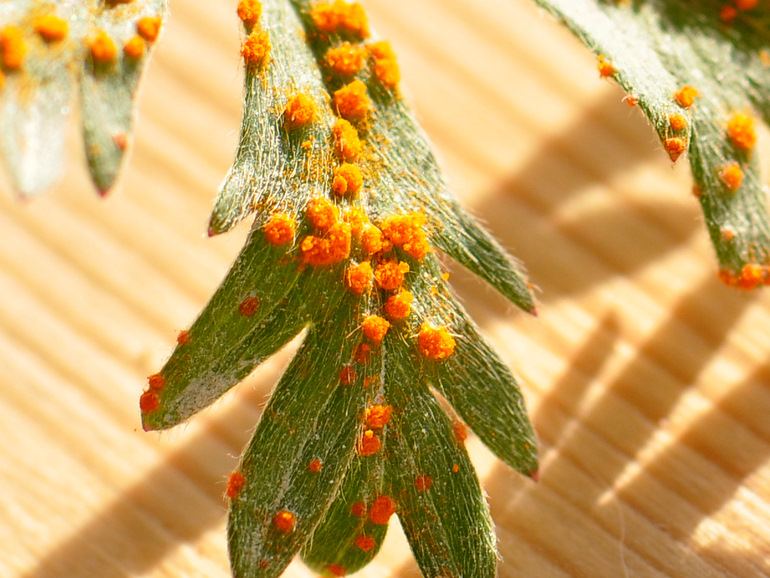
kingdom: Fungi
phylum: Basidiomycota
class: Pucciniomycetes
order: Pucciniales
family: Phragmidiaceae
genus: Phragmidium
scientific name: Phragmidium potentillae
